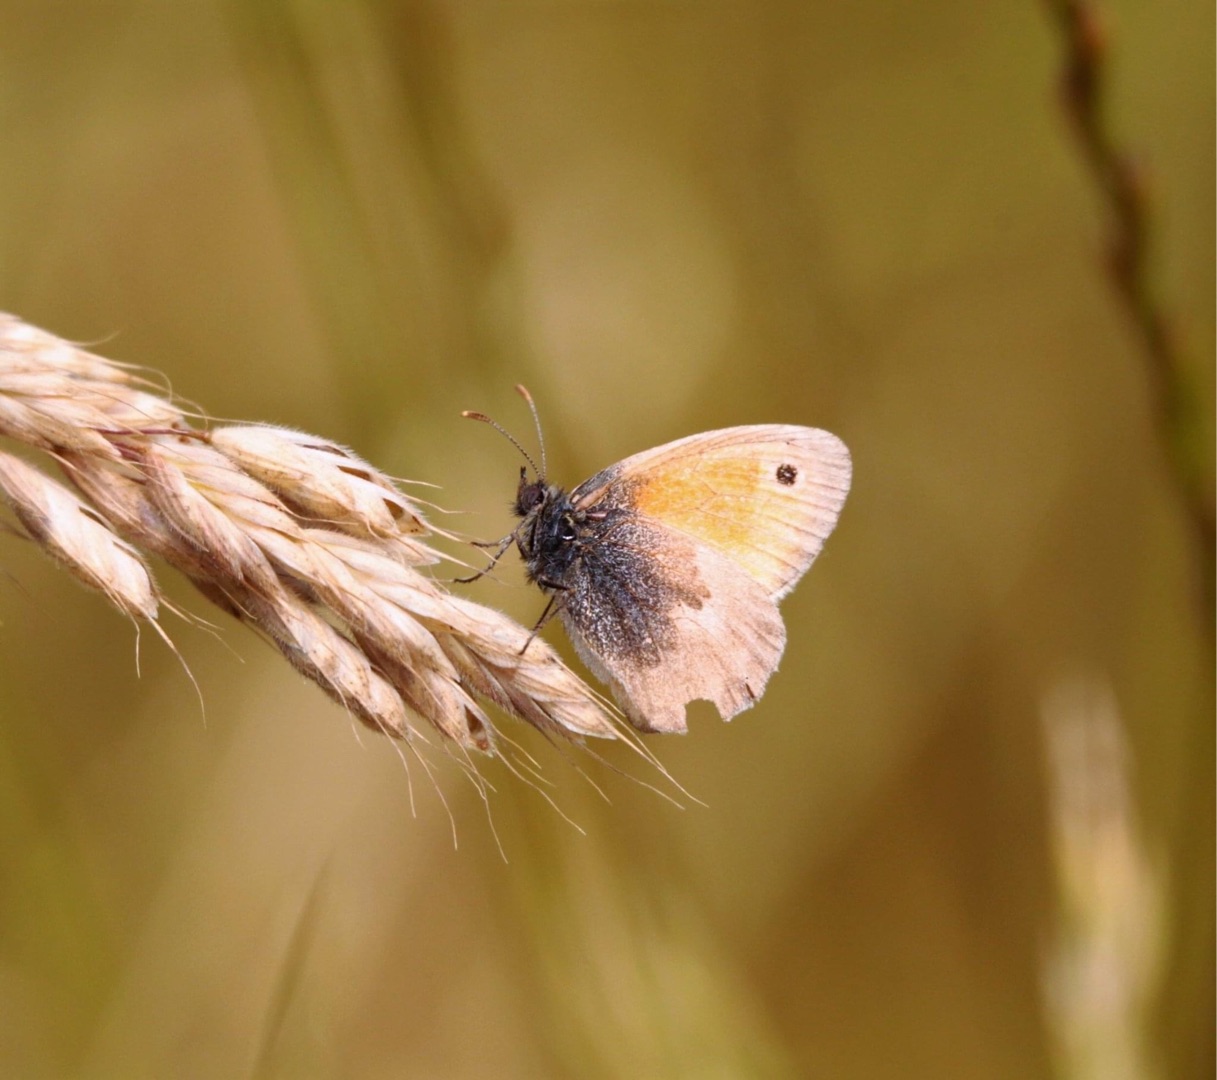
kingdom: Animalia
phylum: Arthropoda
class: Insecta
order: Lepidoptera
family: Nymphalidae
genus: Coenonympha
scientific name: Coenonympha pamphilus
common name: Okkergul randøje
